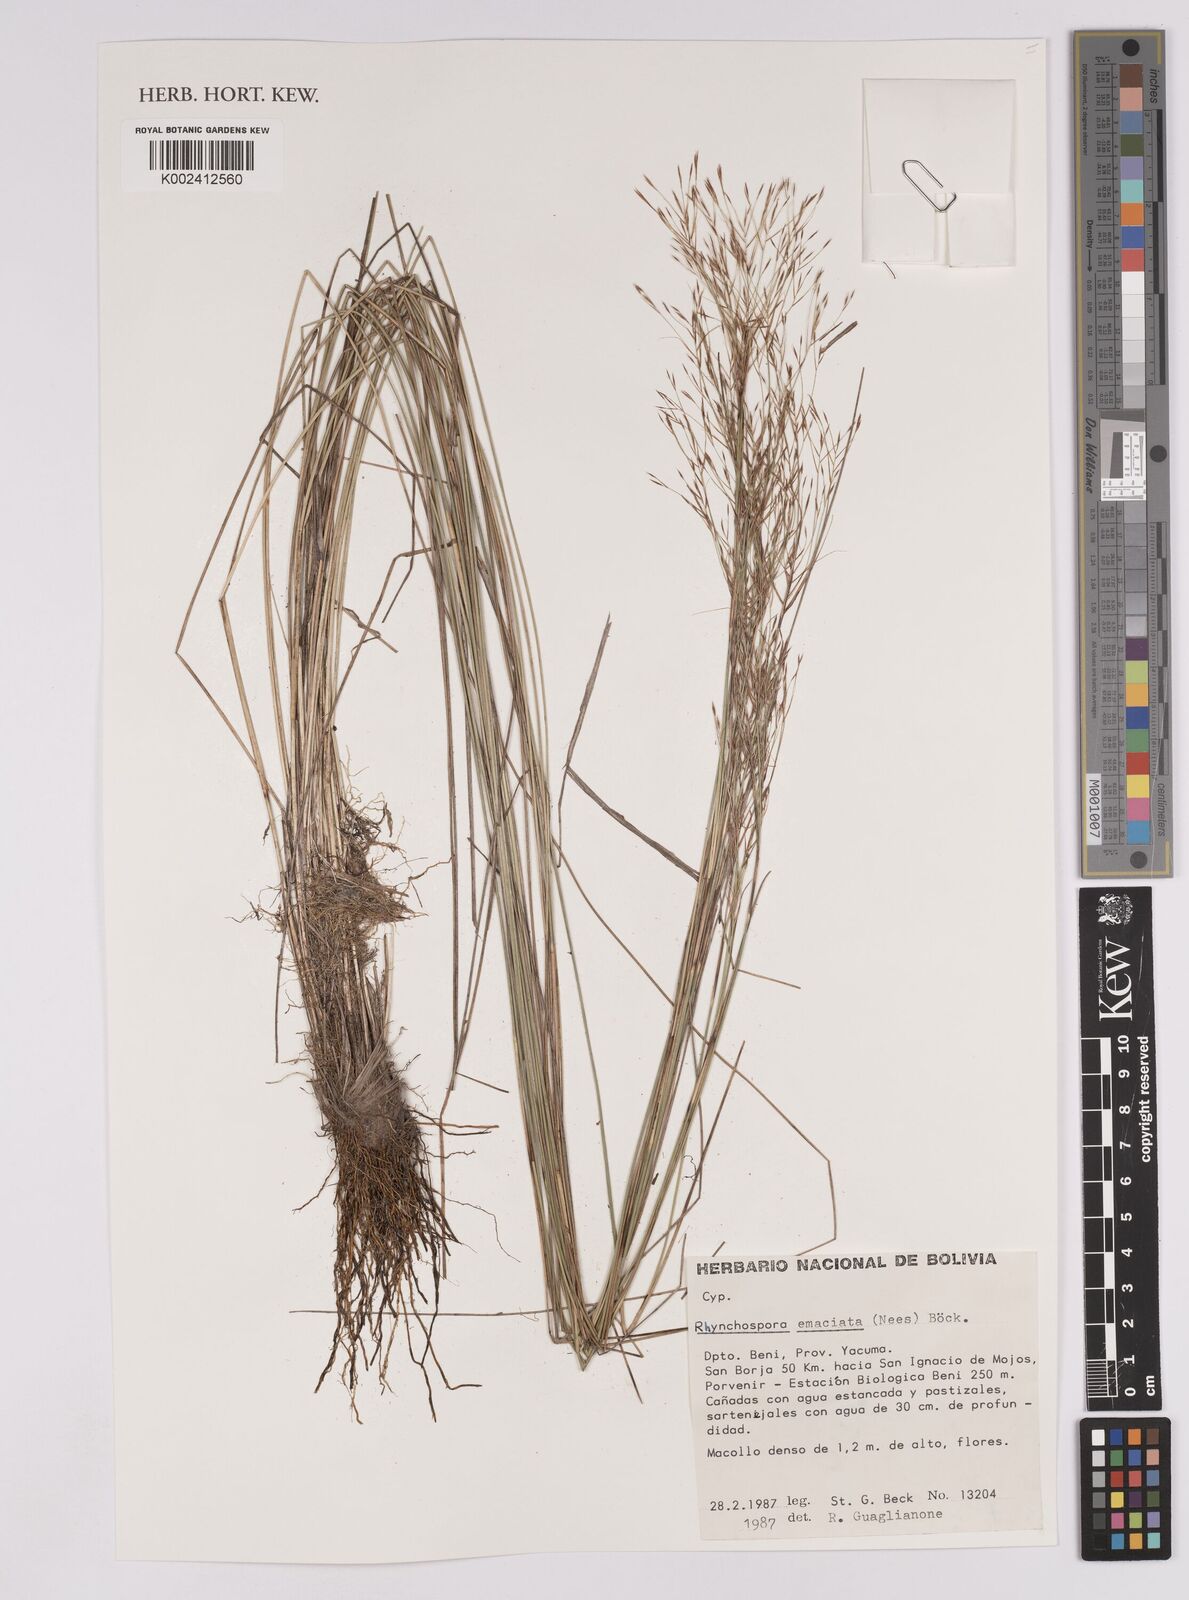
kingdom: Plantae
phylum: Tracheophyta
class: Liliopsida
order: Poales
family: Cyperaceae
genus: Rhynchospora
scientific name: Rhynchospora emaciata
